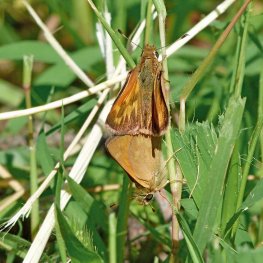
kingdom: Animalia
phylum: Arthropoda
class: Insecta
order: Lepidoptera
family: Hesperiidae
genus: Ochlodes
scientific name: Ochlodes sylvanoides
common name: Woodland Skipper
